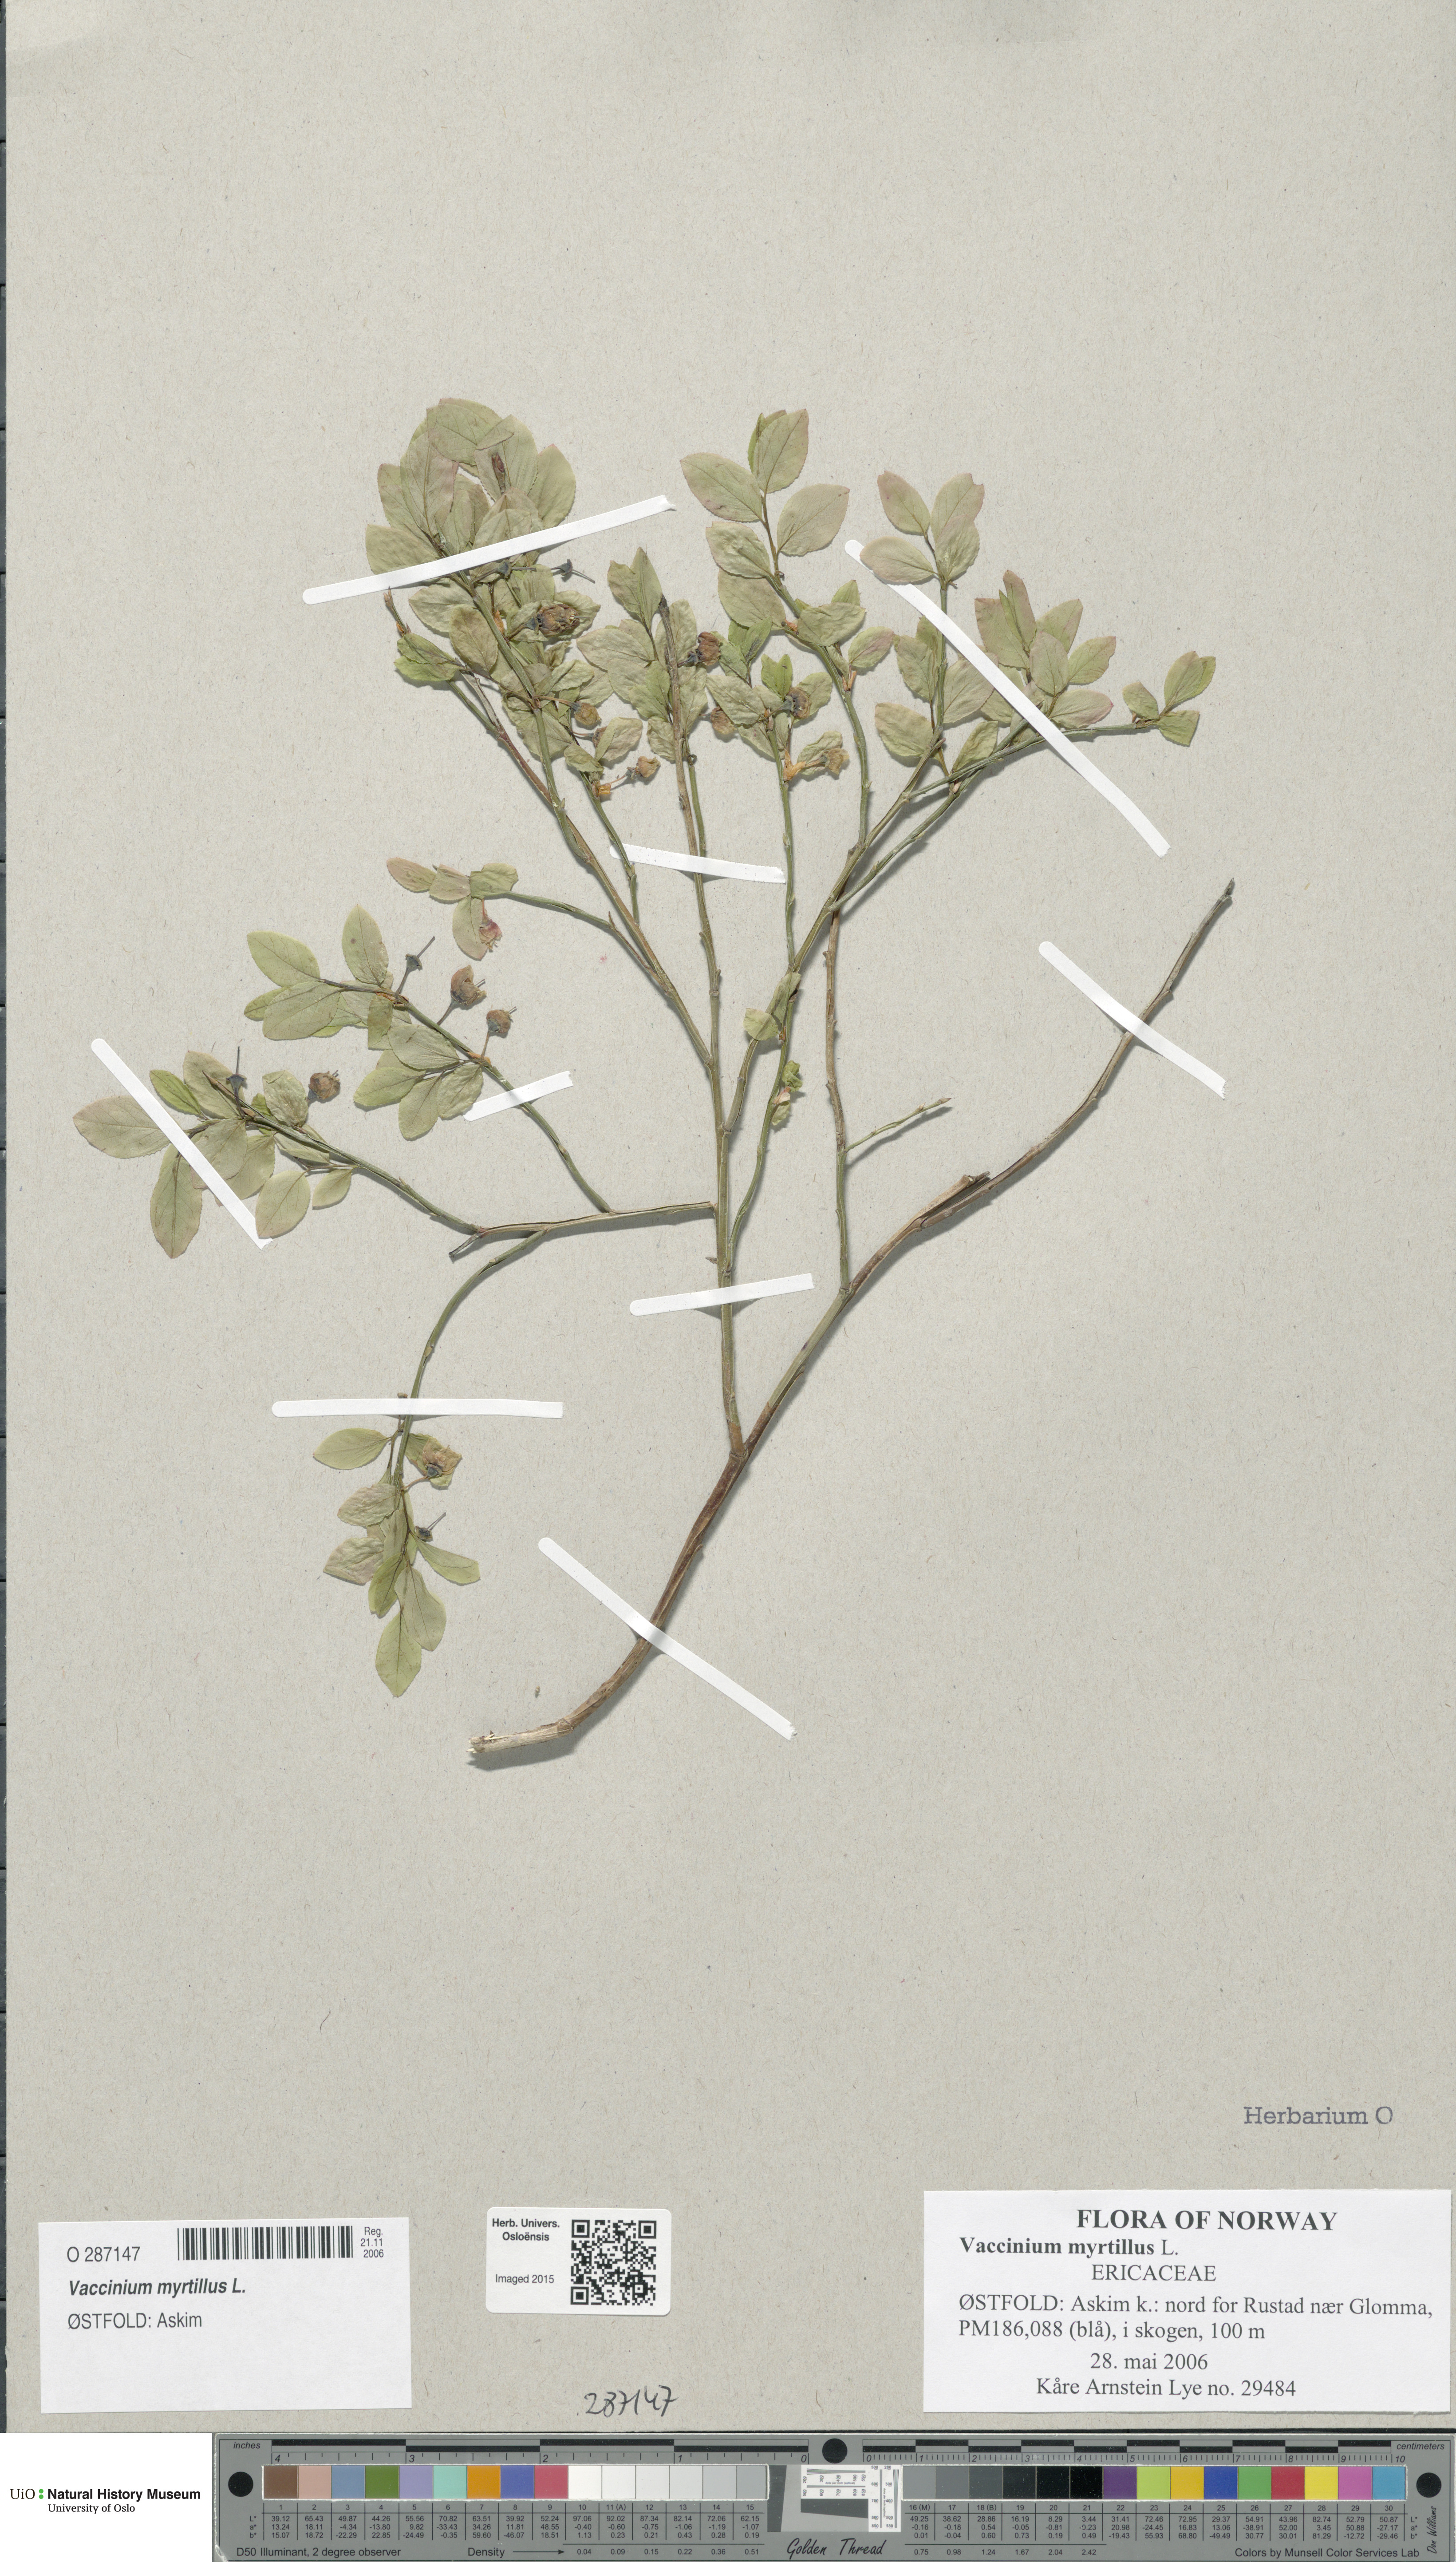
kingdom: Plantae
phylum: Tracheophyta
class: Magnoliopsida
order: Ericales
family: Ericaceae
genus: Vaccinium
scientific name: Vaccinium myrtillus
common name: Bilberry
